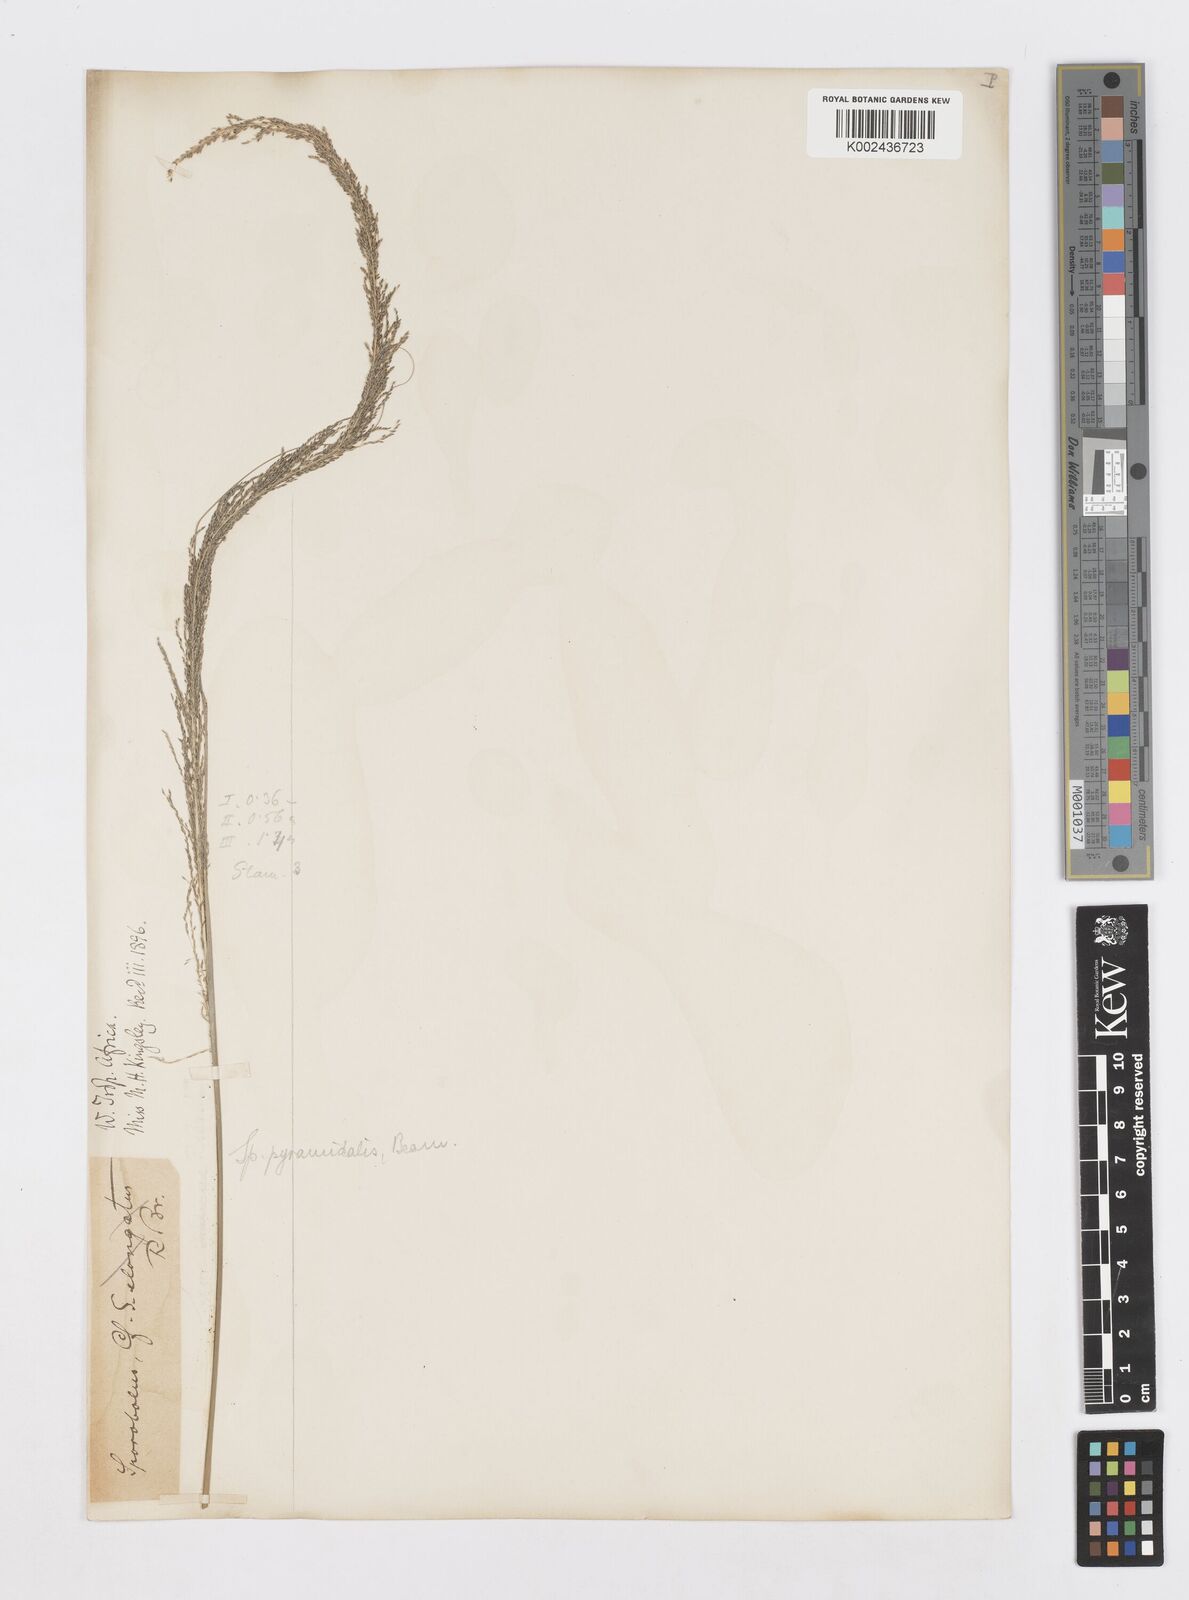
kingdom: Plantae
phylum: Tracheophyta
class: Liliopsida
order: Poales
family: Poaceae
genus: Sporobolus
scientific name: Sporobolus pyramidalis
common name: West indian dropseed
